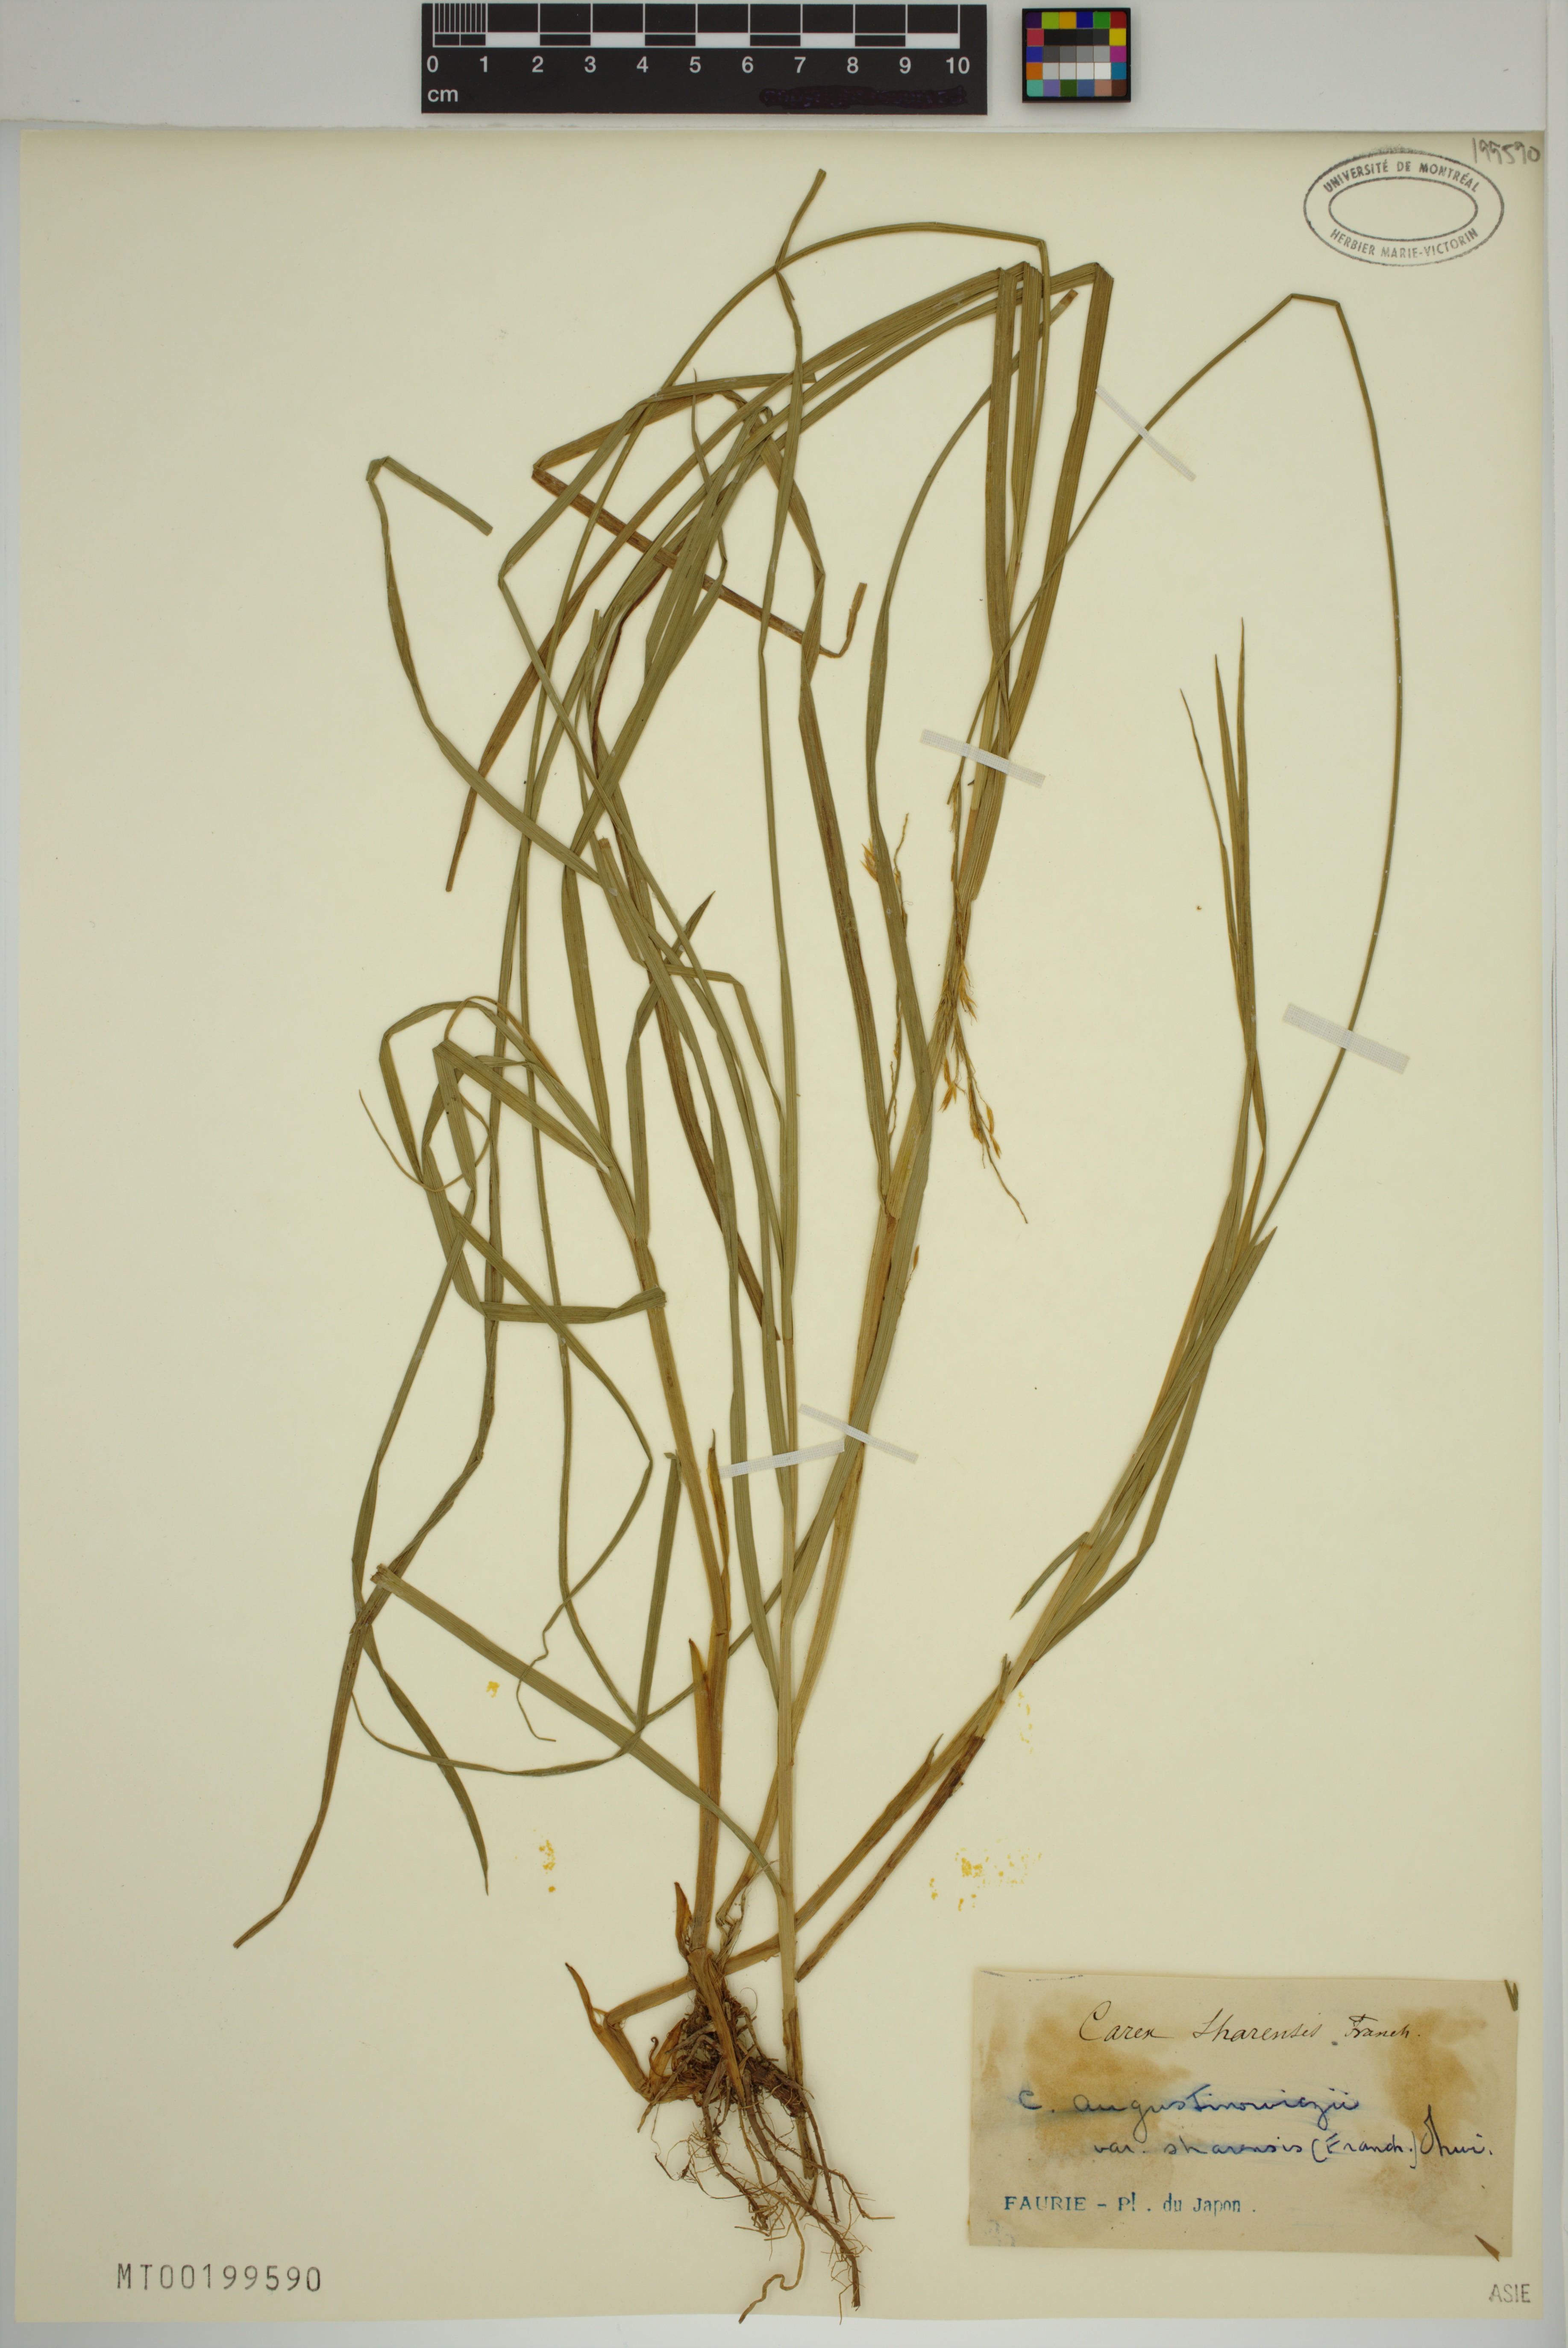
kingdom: Plantae
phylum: Tracheophyta
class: Liliopsida
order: Poales
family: Cyperaceae
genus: Carex
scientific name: Carex augustinowiczii
